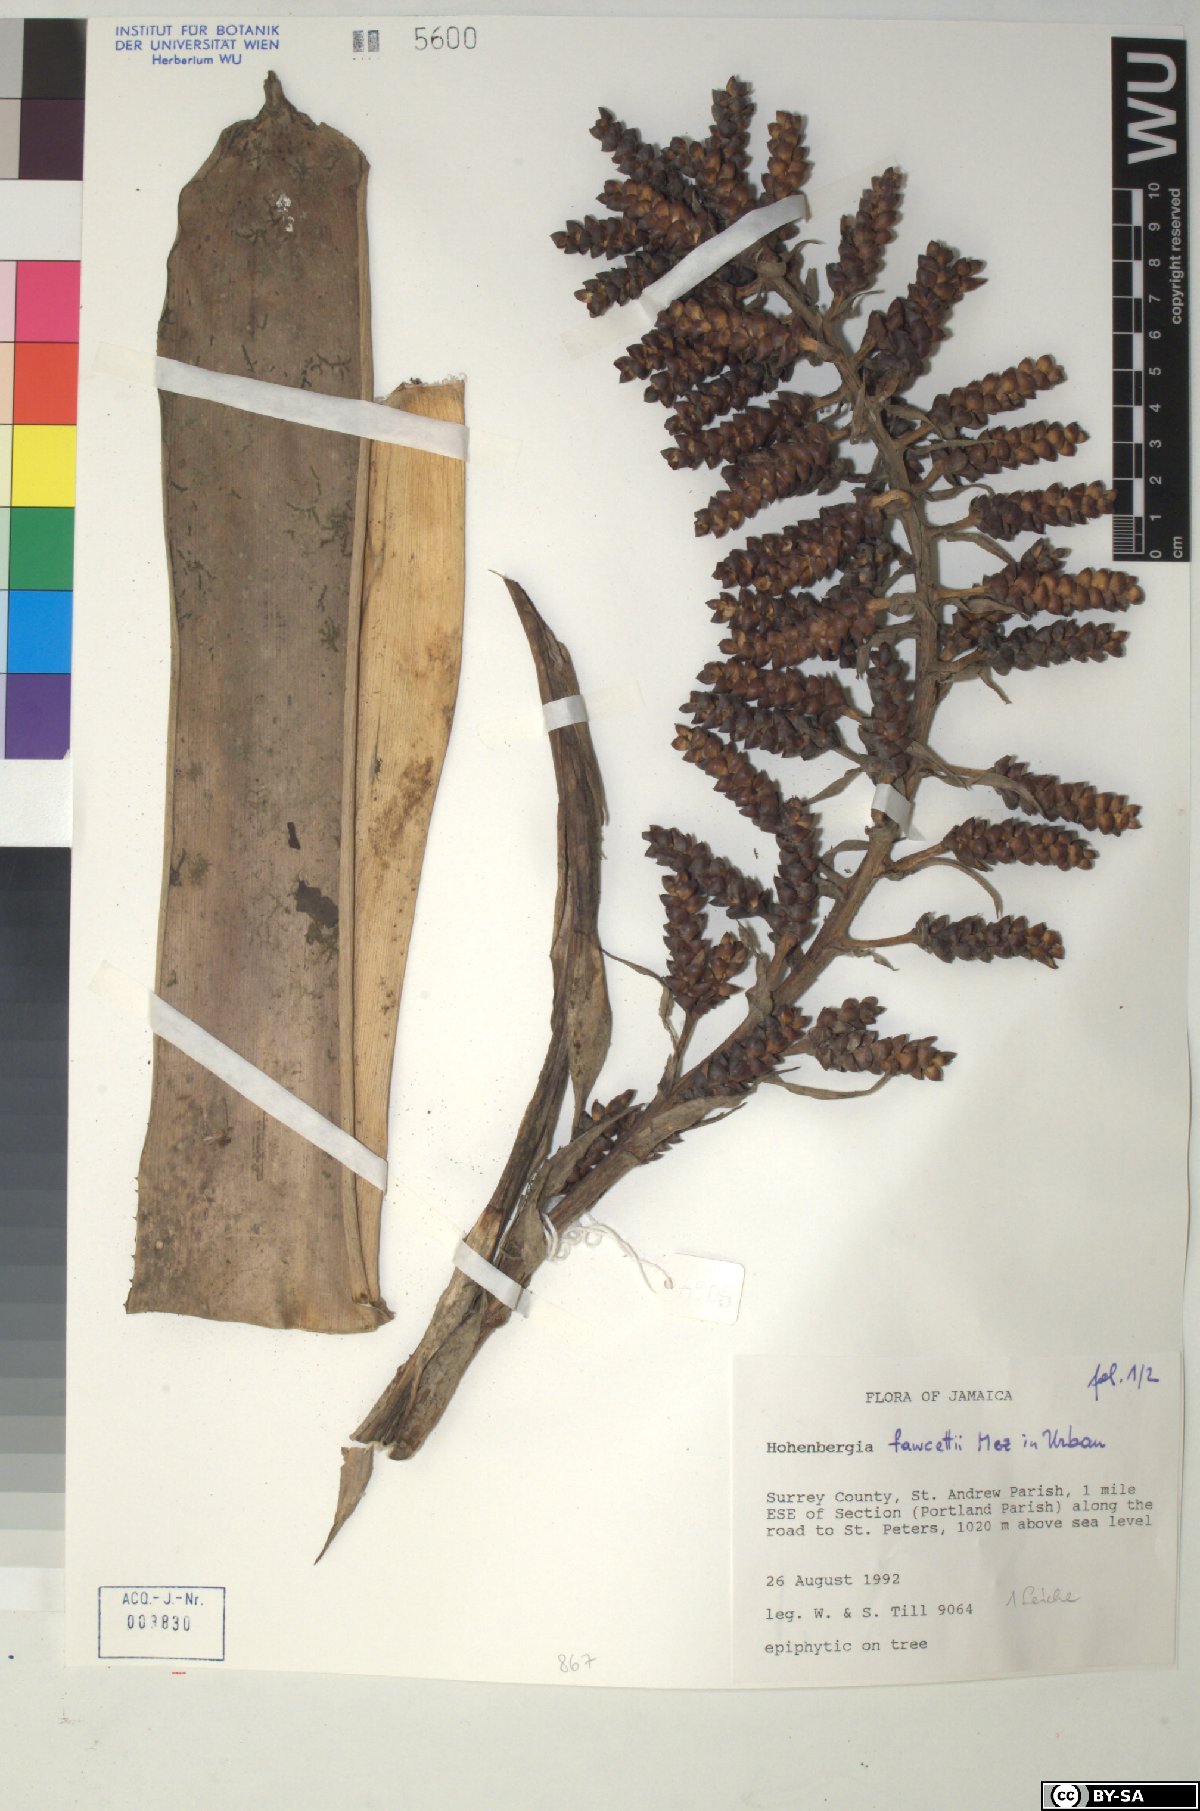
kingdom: Plantae
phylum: Tracheophyta
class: Liliopsida
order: Poales
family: Bromeliaceae
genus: Wittmackia
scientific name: Wittmackia fawcettii
